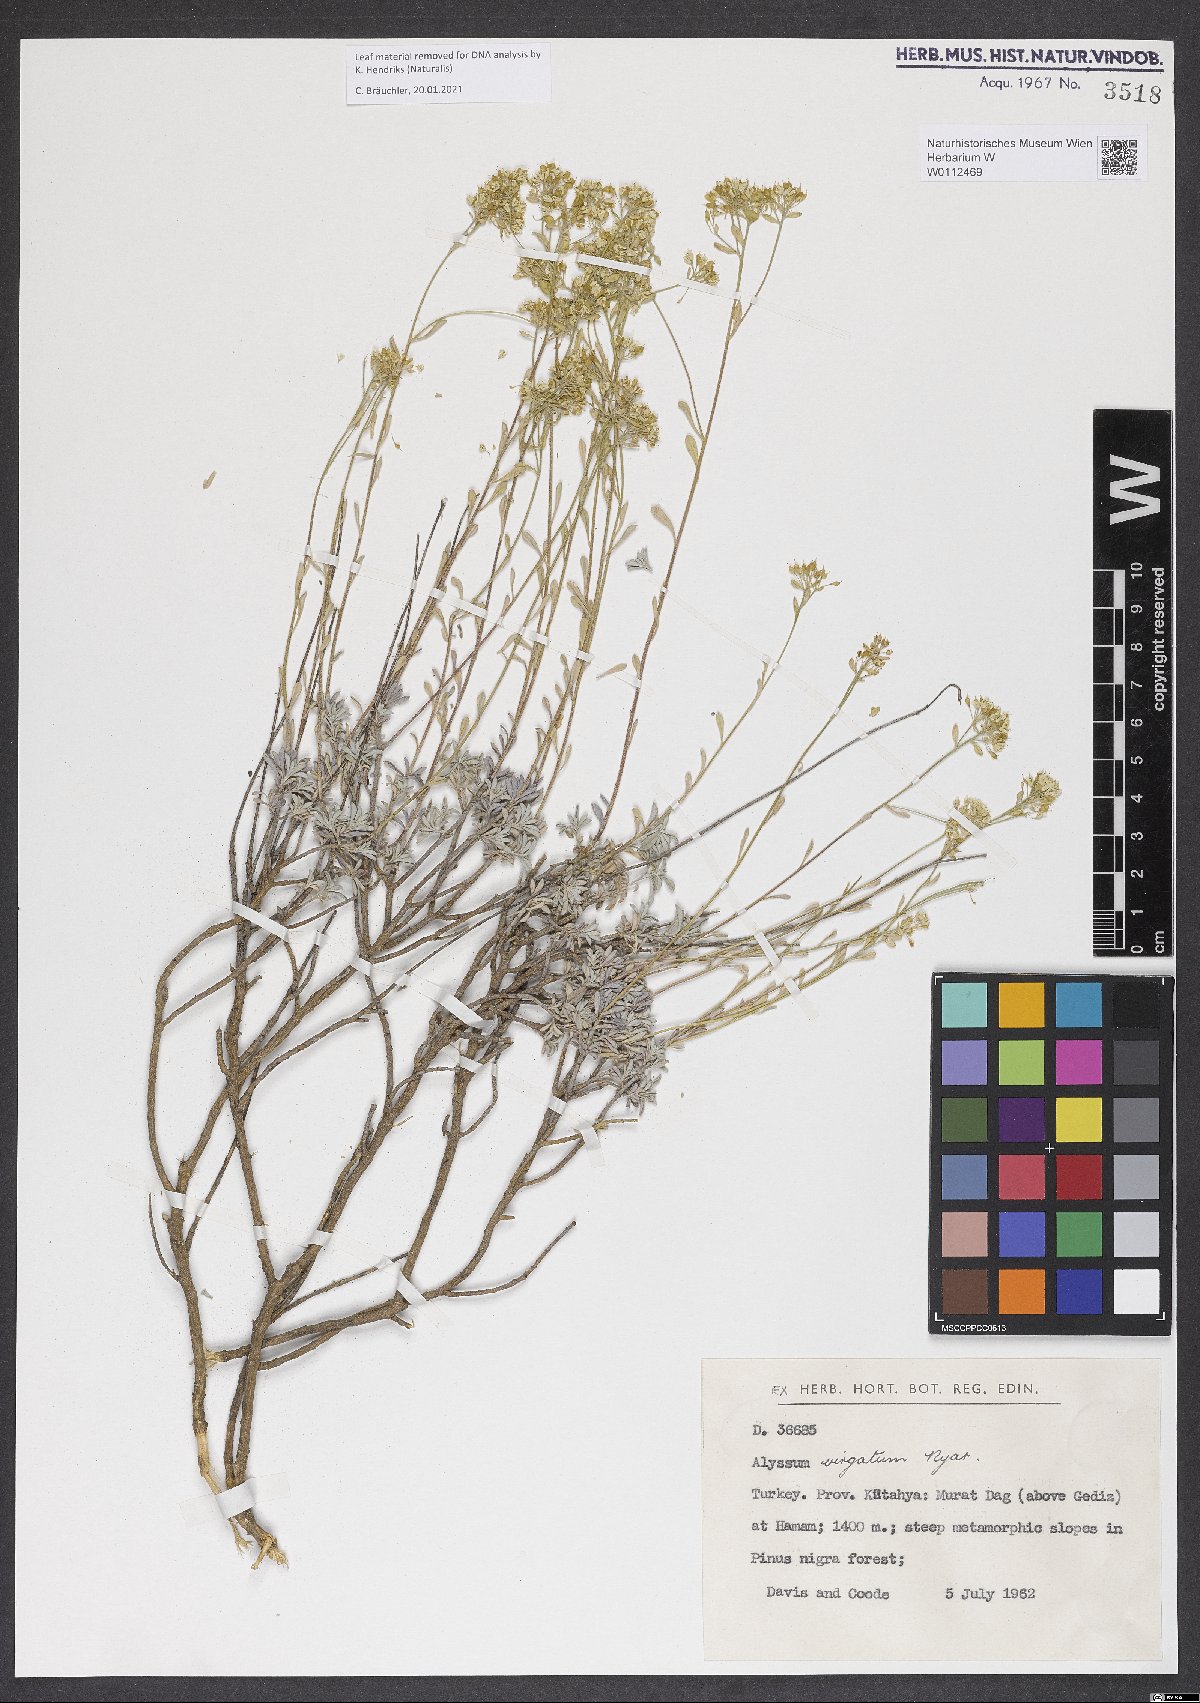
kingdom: Plantae
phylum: Tracheophyta
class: Magnoliopsida
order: Brassicales
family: Brassicaceae
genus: Odontarrhena
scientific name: Odontarrhena virgata
